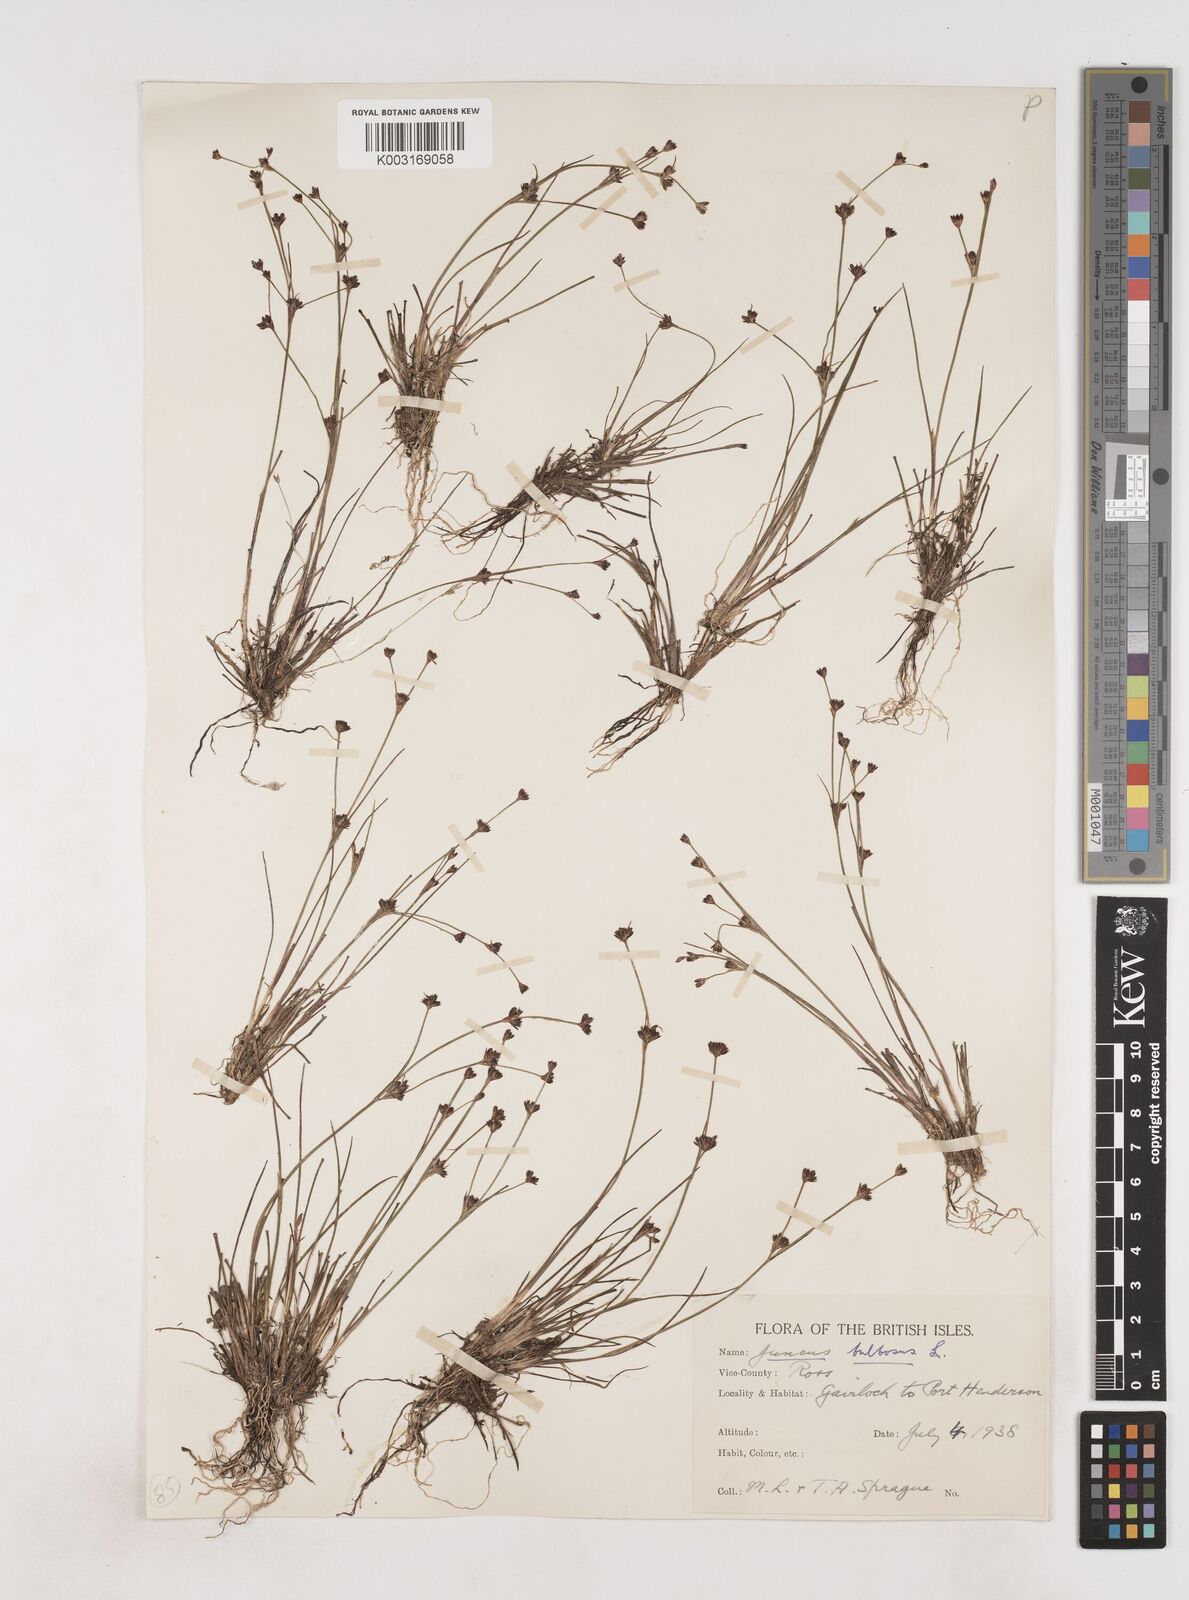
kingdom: Plantae
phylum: Tracheophyta
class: Liliopsida
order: Poales
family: Juncaceae
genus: Juncus
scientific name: Juncus bulbosus
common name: Bulbous rush
